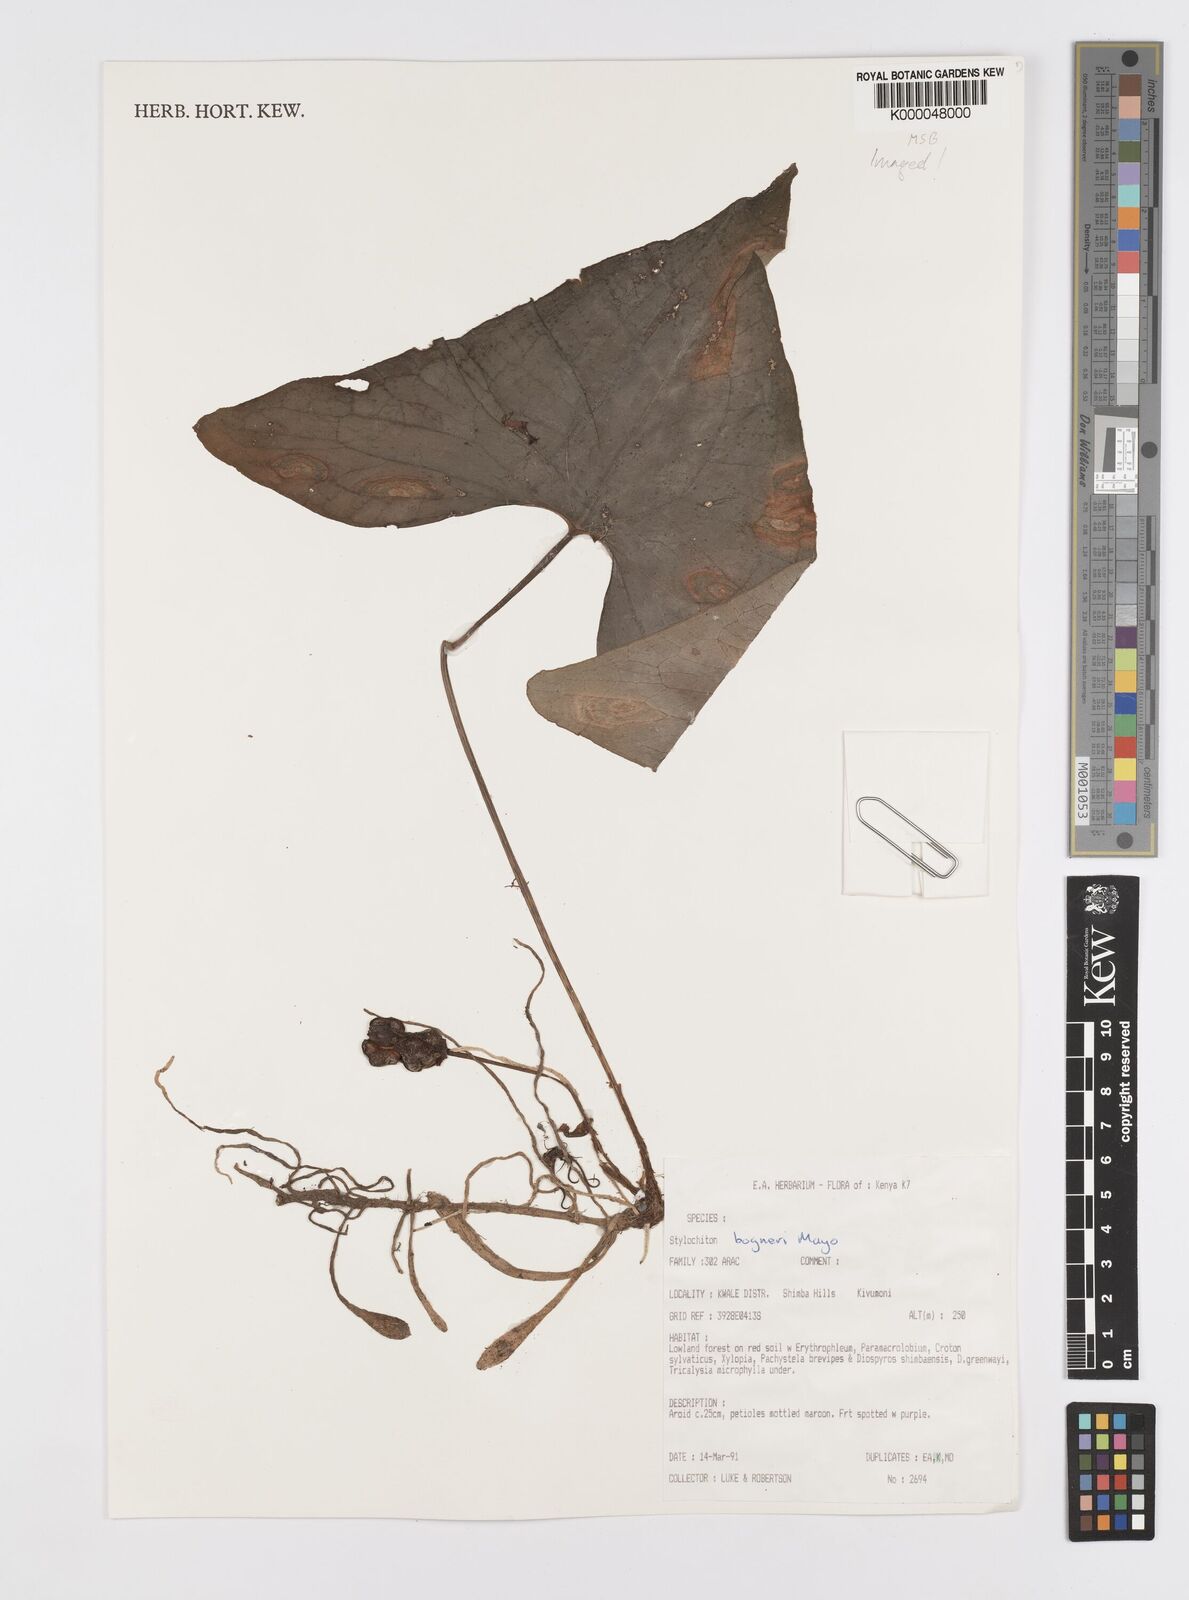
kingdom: Plantae
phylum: Tracheophyta
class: Liliopsida
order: Alismatales
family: Araceae
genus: Stylochaeton
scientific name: Stylochaeton bogneri
